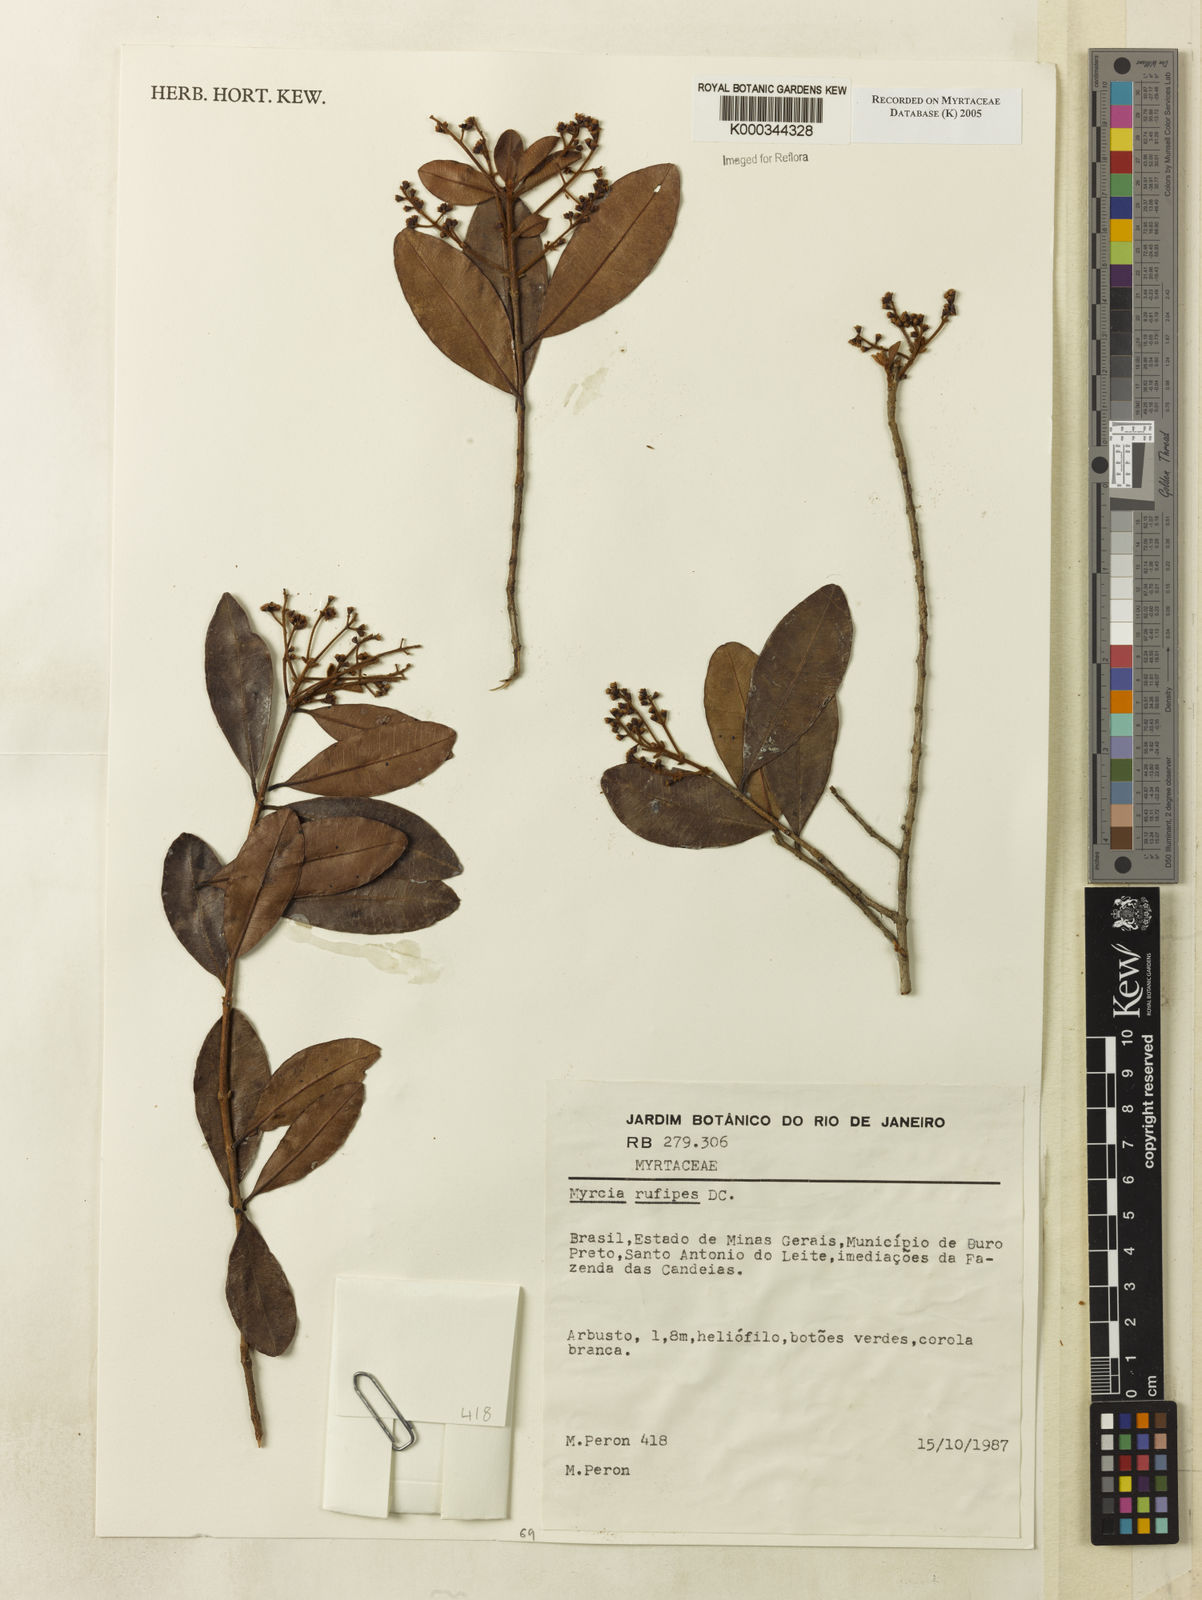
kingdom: Plantae
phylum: Tracheophyta
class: Magnoliopsida
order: Myrtales
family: Myrtaceae
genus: Myrcia
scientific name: Myrcia rufipes
